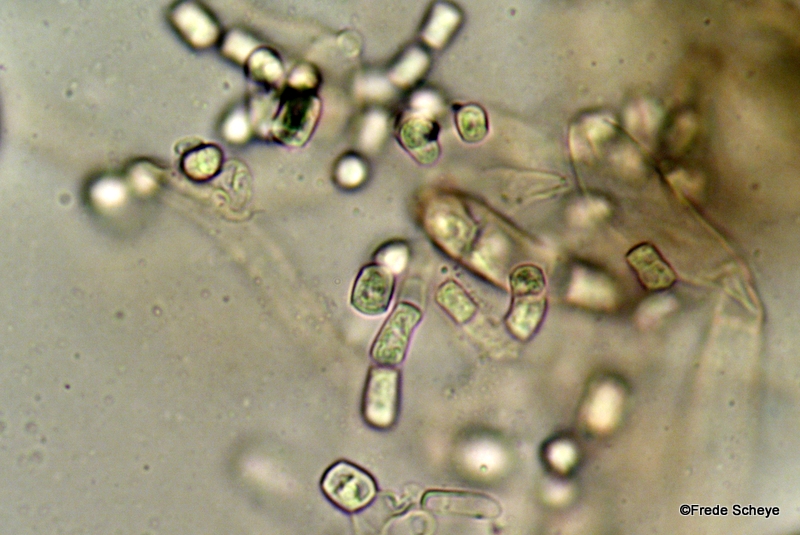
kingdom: Fungi
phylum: Basidiomycota
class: Agaricomycetes
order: Agaricales
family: Tricholomataceae
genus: Cystoderma
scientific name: Cystoderma jasonis
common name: gulkødet grynhat
